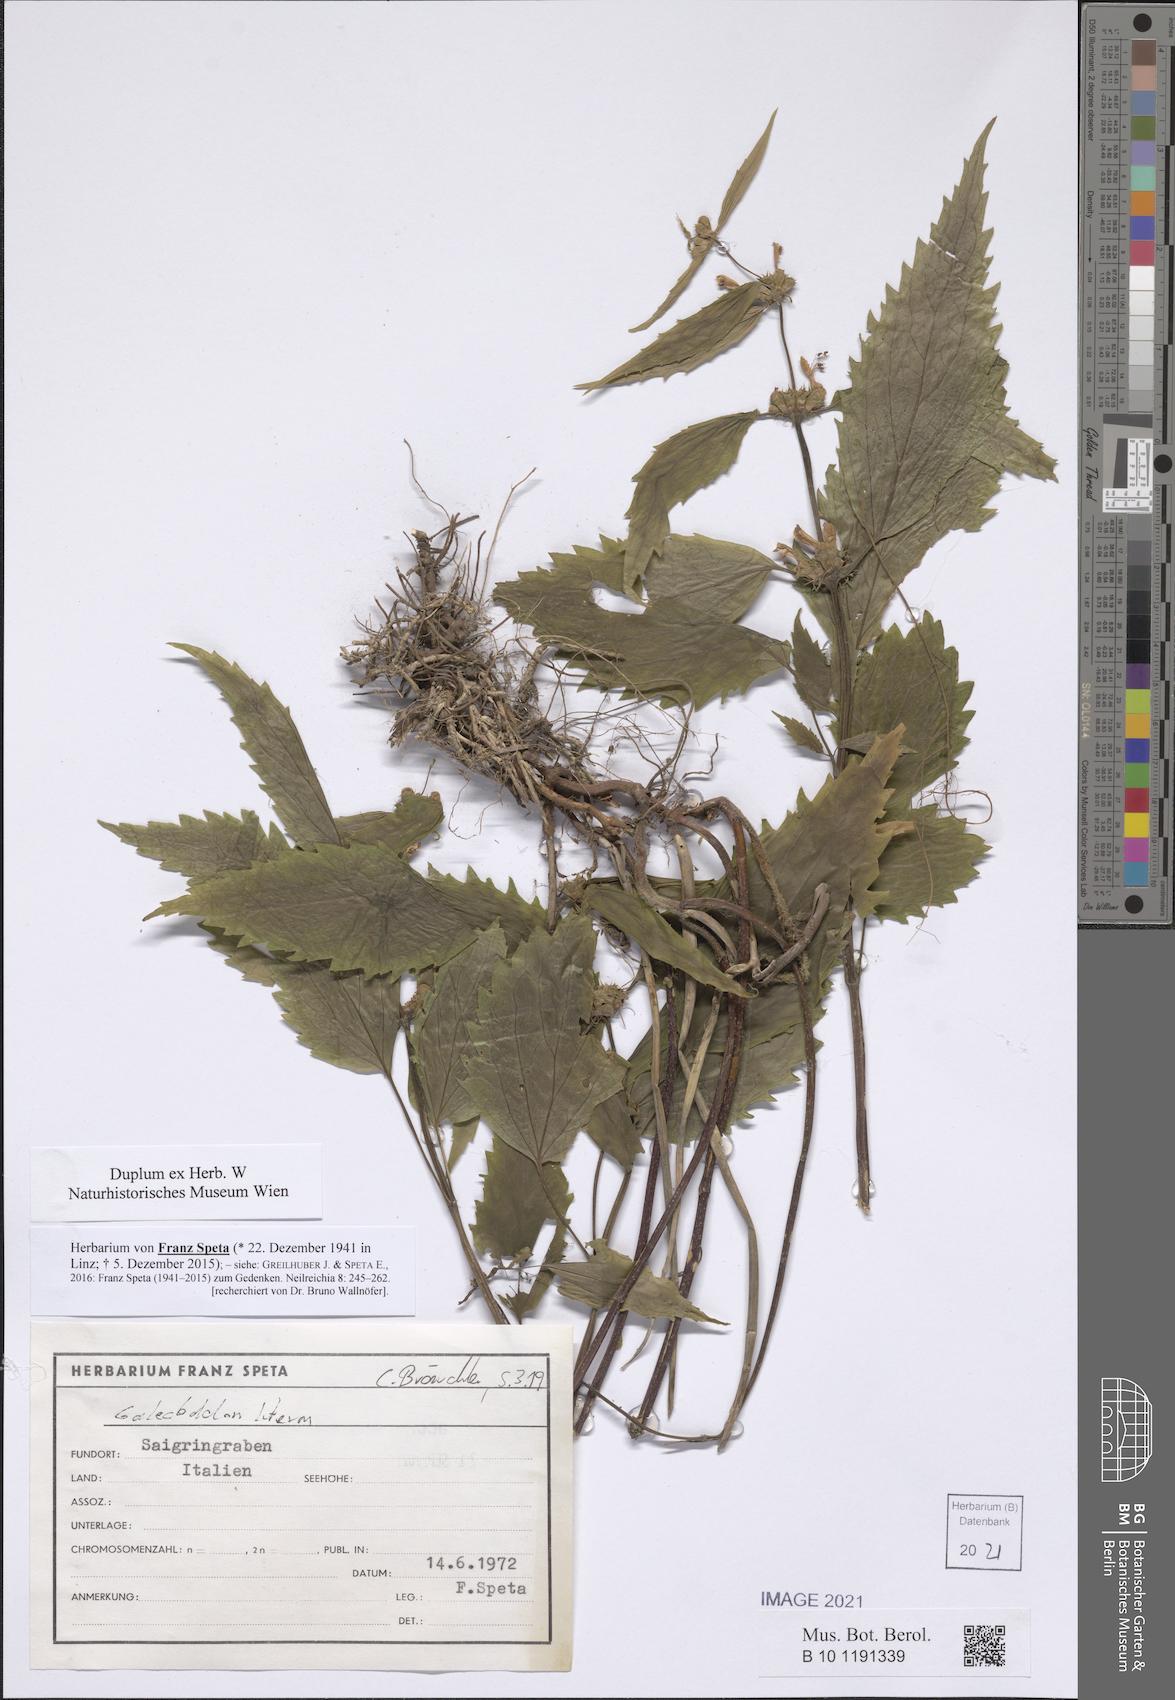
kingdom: Plantae
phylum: Tracheophyta
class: Magnoliopsida
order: Lamiales
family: Lamiaceae
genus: Lamium
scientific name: Lamium galeobdolon
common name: Yellow archangel
